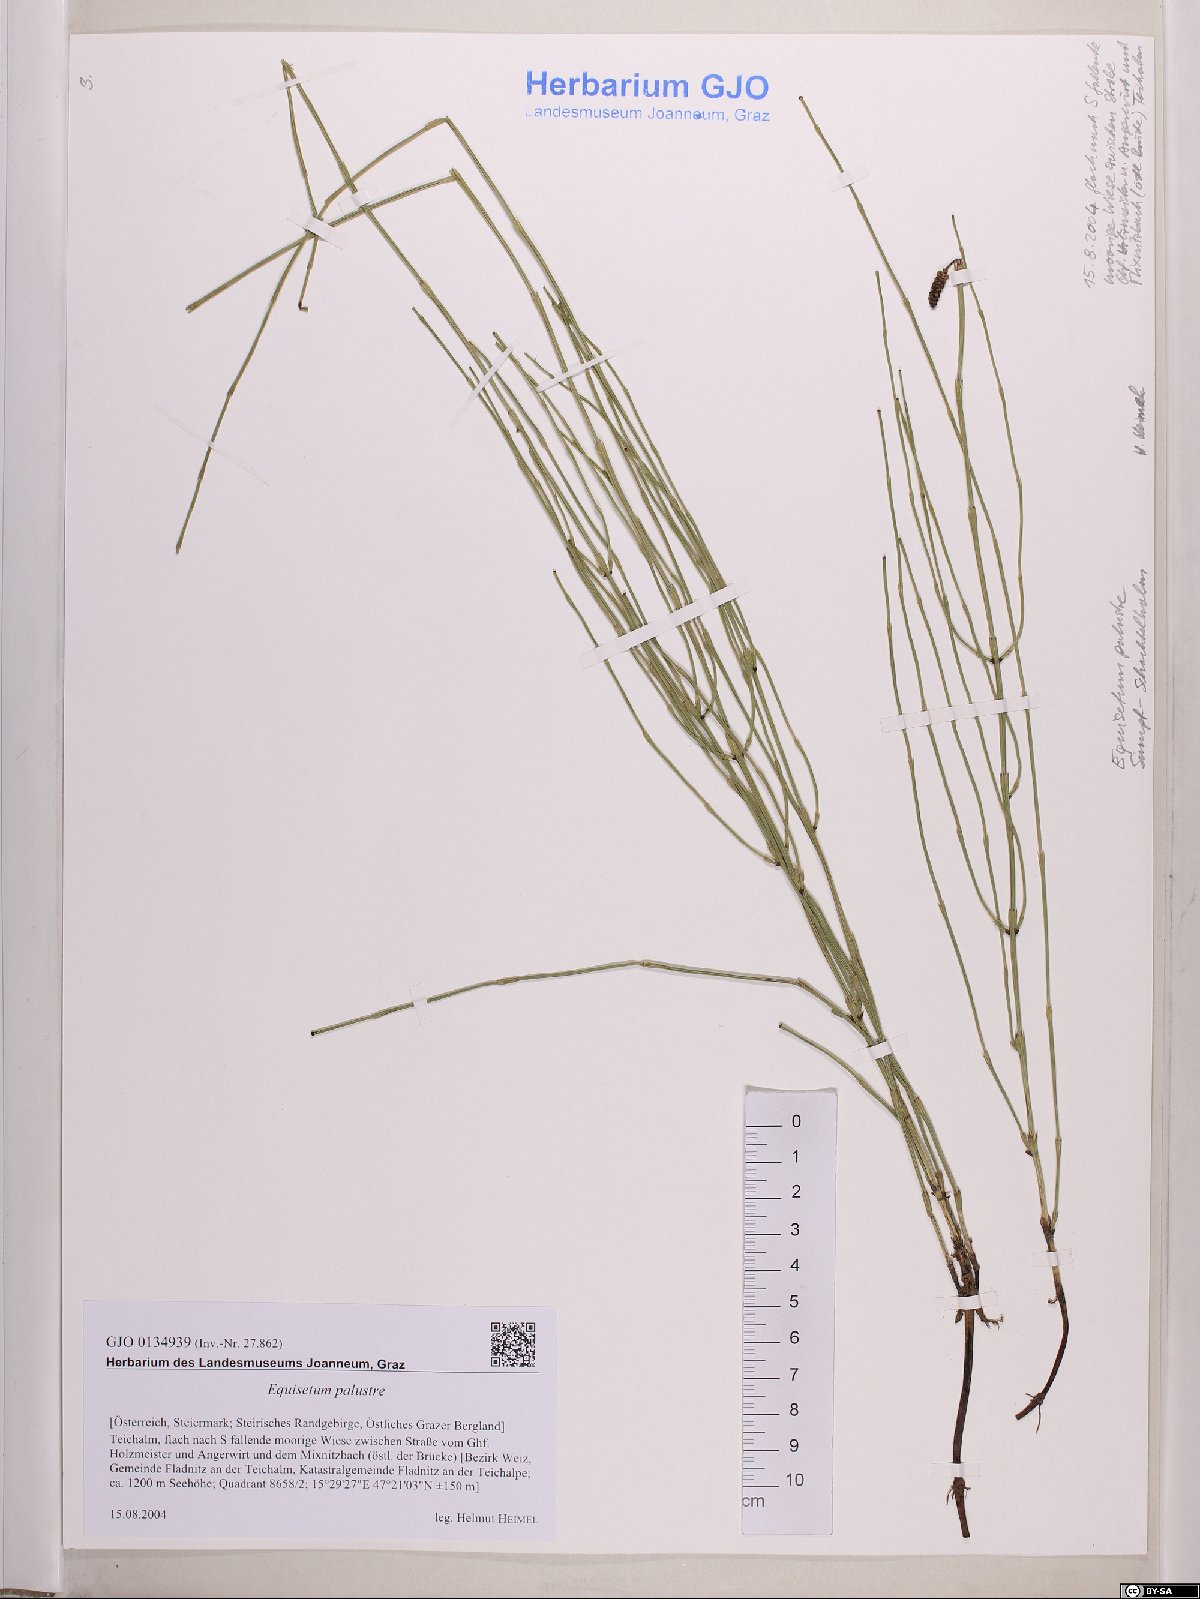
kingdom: Plantae
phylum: Tracheophyta
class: Polypodiopsida
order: Equisetales
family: Equisetaceae
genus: Equisetum
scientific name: Equisetum palustre
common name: Marsh horsetail
